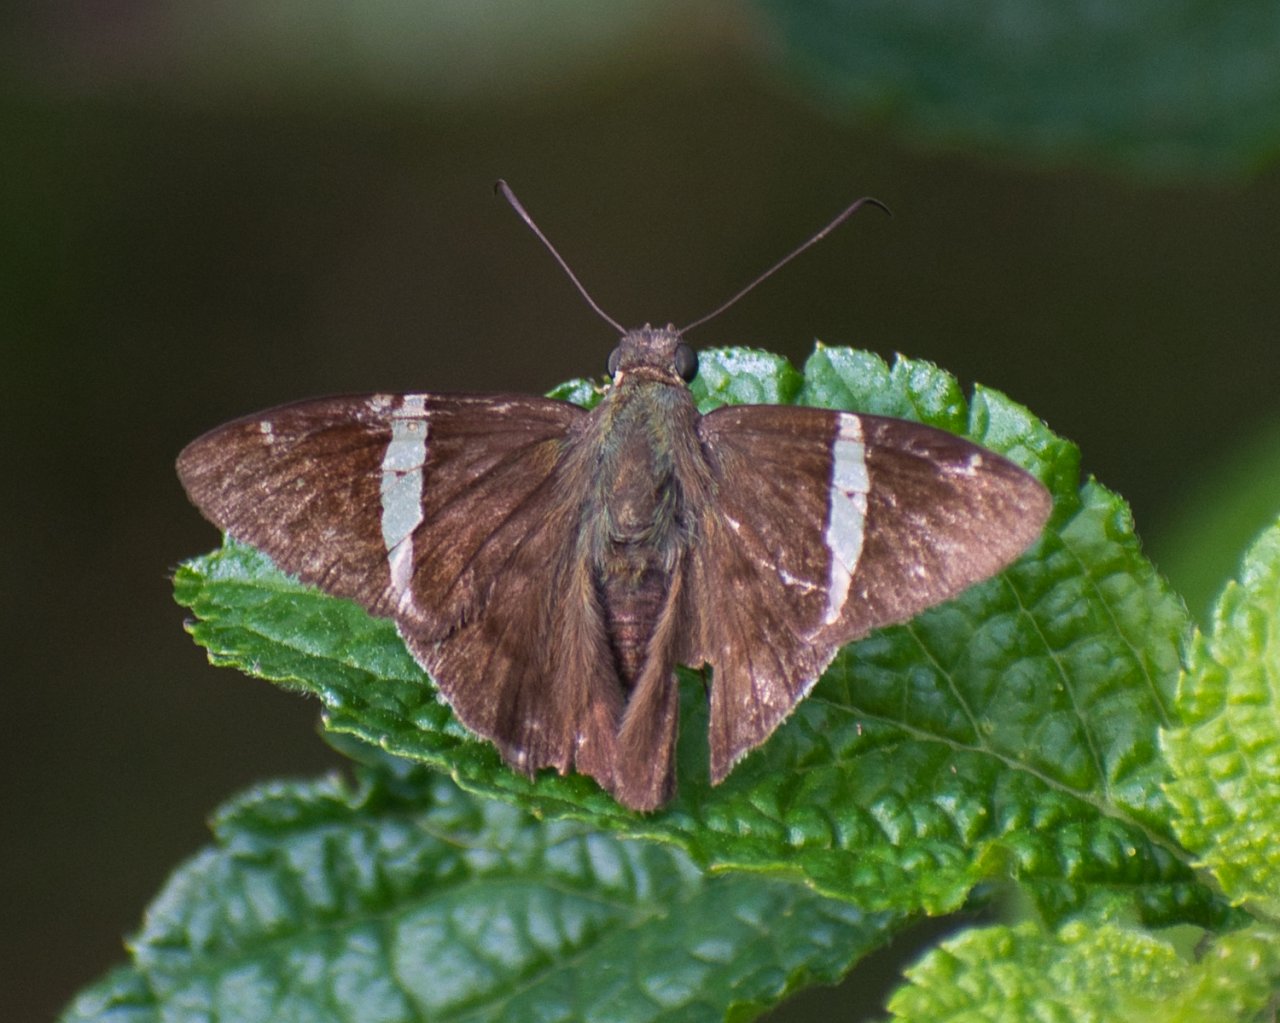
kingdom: Animalia
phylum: Arthropoda
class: Insecta
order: Lepidoptera
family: Hesperiidae
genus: Autochton
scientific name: Autochton longipennis
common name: Spike Banded-Skipper
